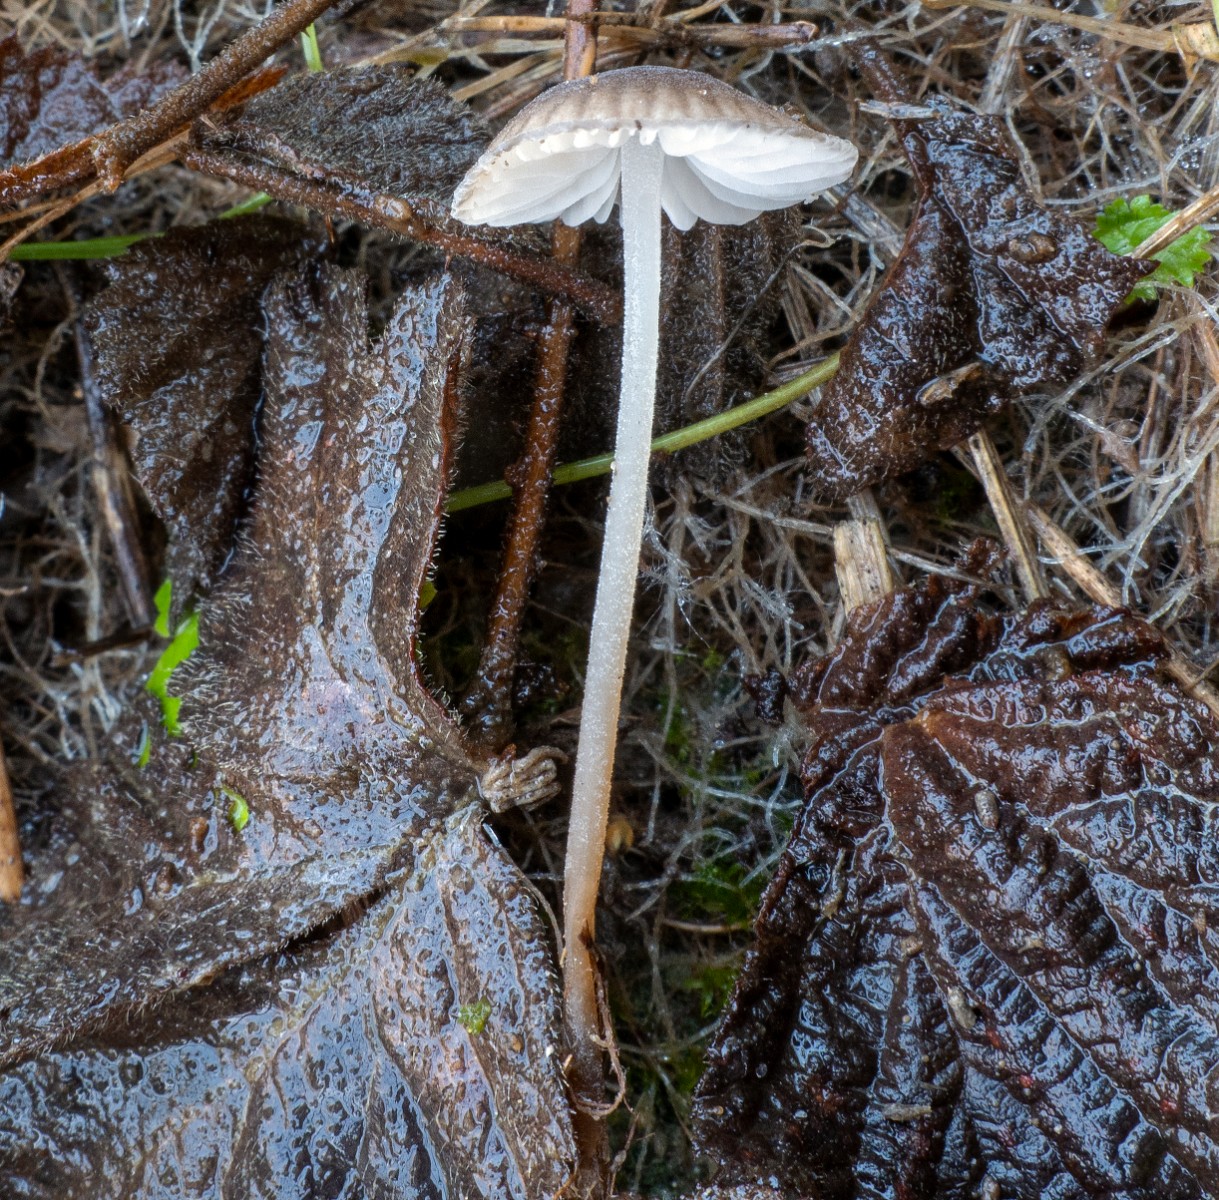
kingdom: Fungi
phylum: Basidiomycota
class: Agaricomycetes
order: Agaricales
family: Tricholomataceae
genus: Mycenella
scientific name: Mycenella salicina
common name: glatsporet dughat
